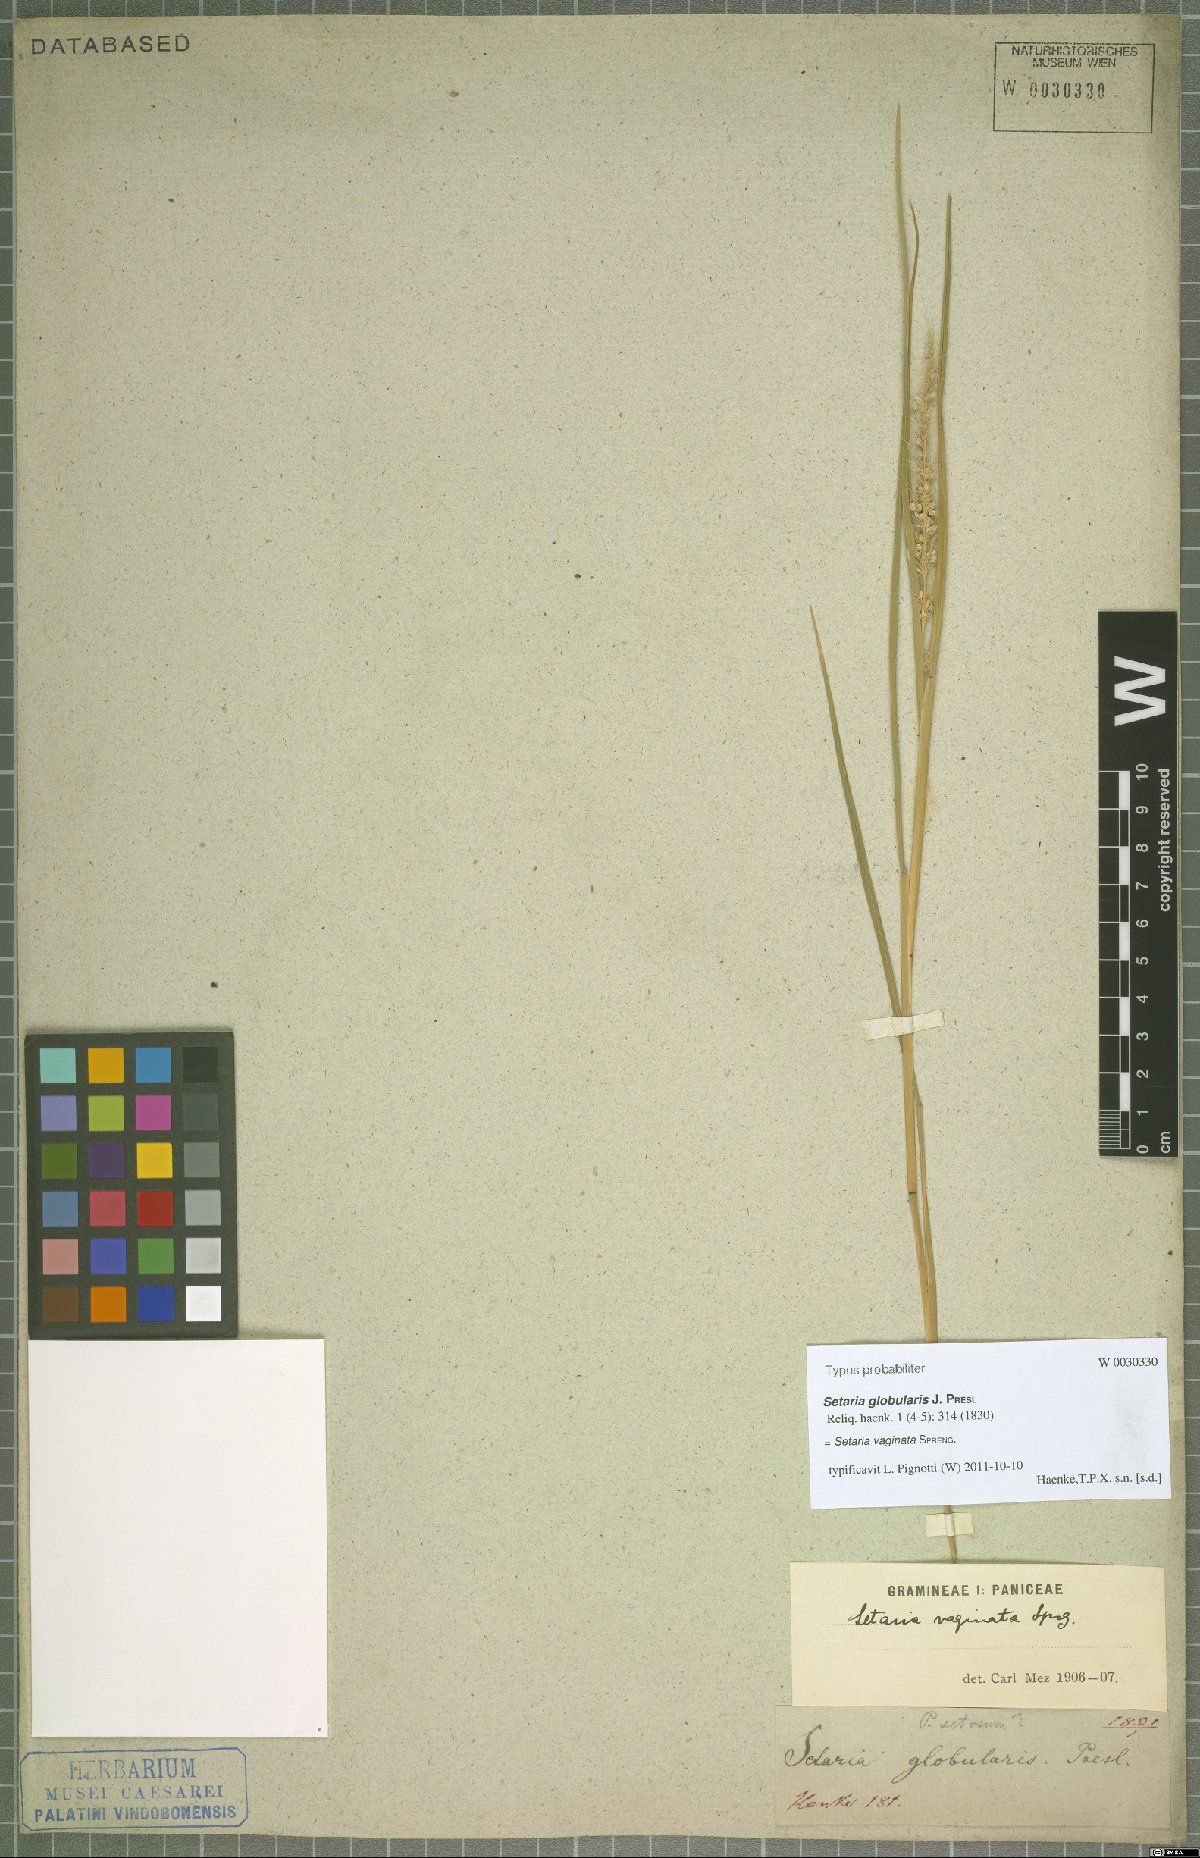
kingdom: Plantae
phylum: Tracheophyta
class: Liliopsida
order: Poales
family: Poaceae
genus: Setaria
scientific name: Setaria vaginata
